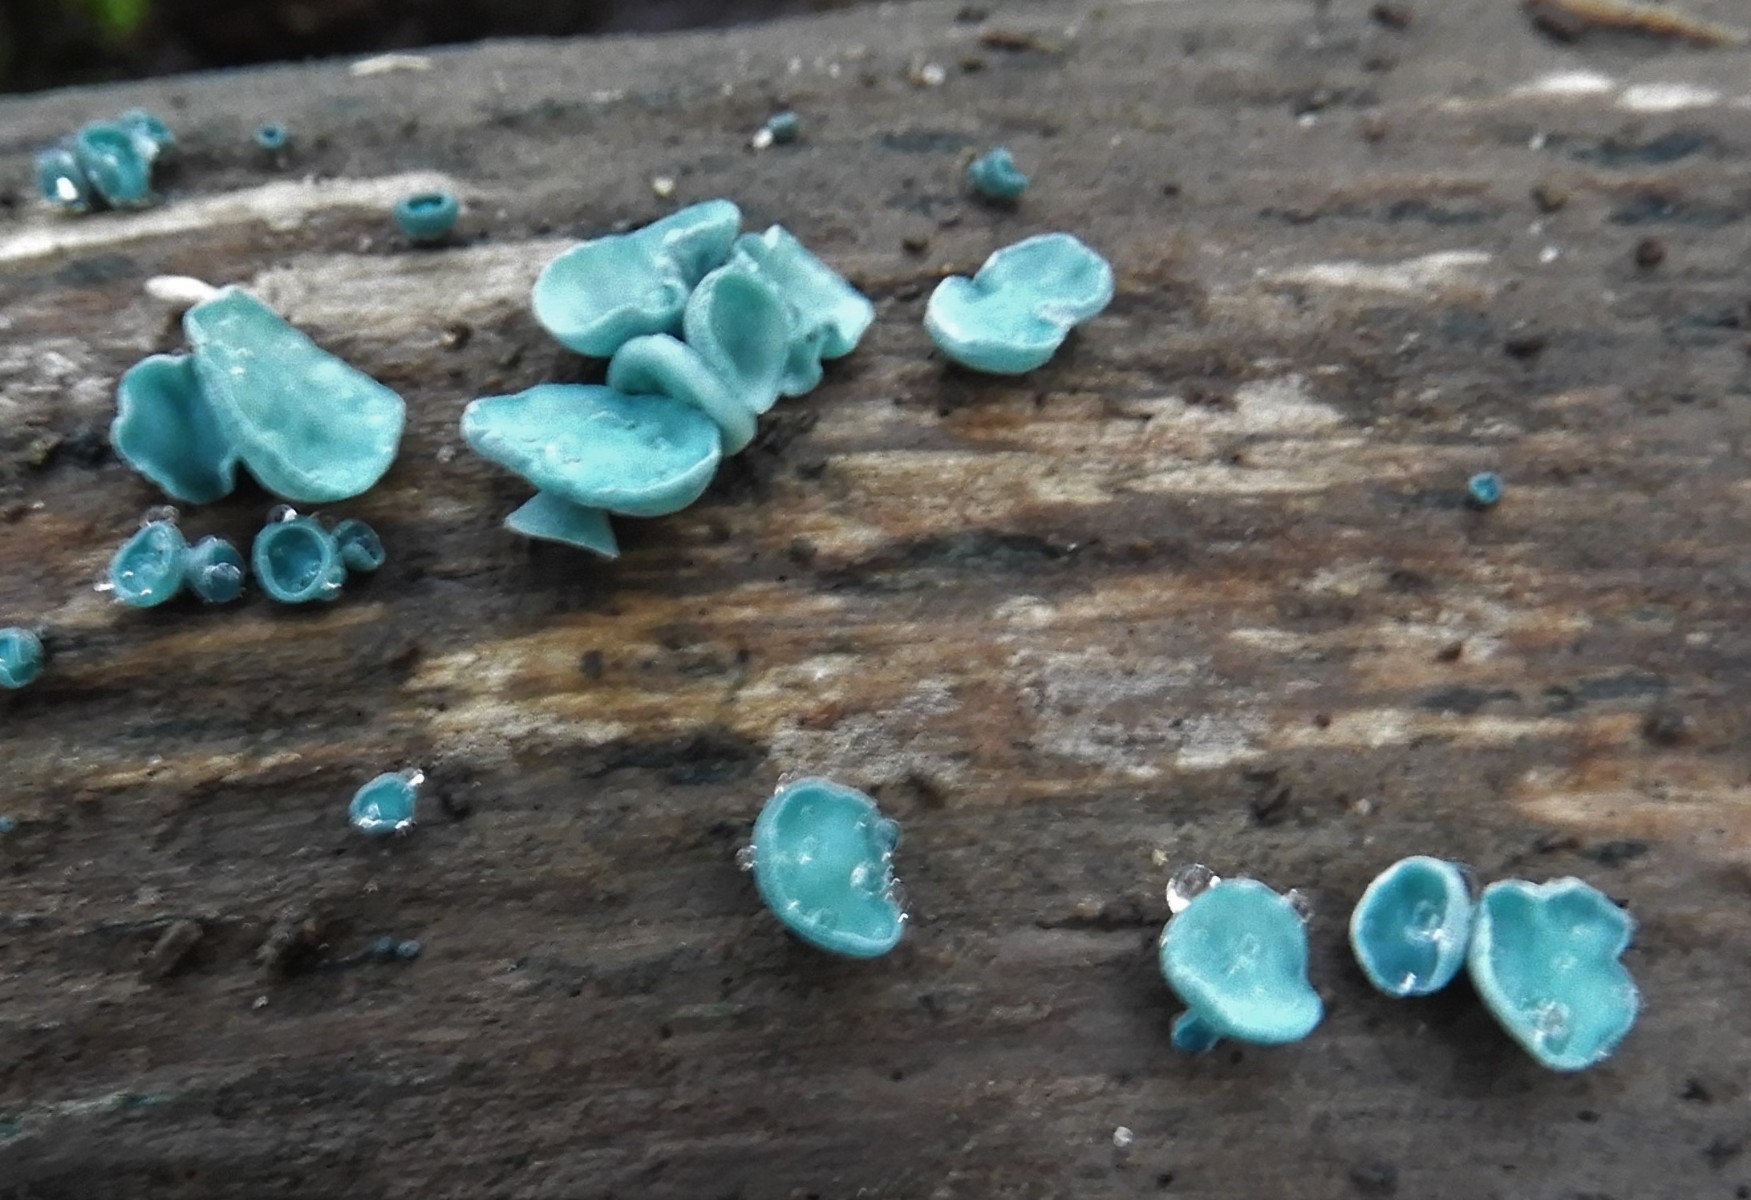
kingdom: Fungi
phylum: Ascomycota
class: Leotiomycetes
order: Helotiales
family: Chlorociboriaceae
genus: Chlorociboria
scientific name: Chlorociboria aeruginascens
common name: almindelig grønskive
